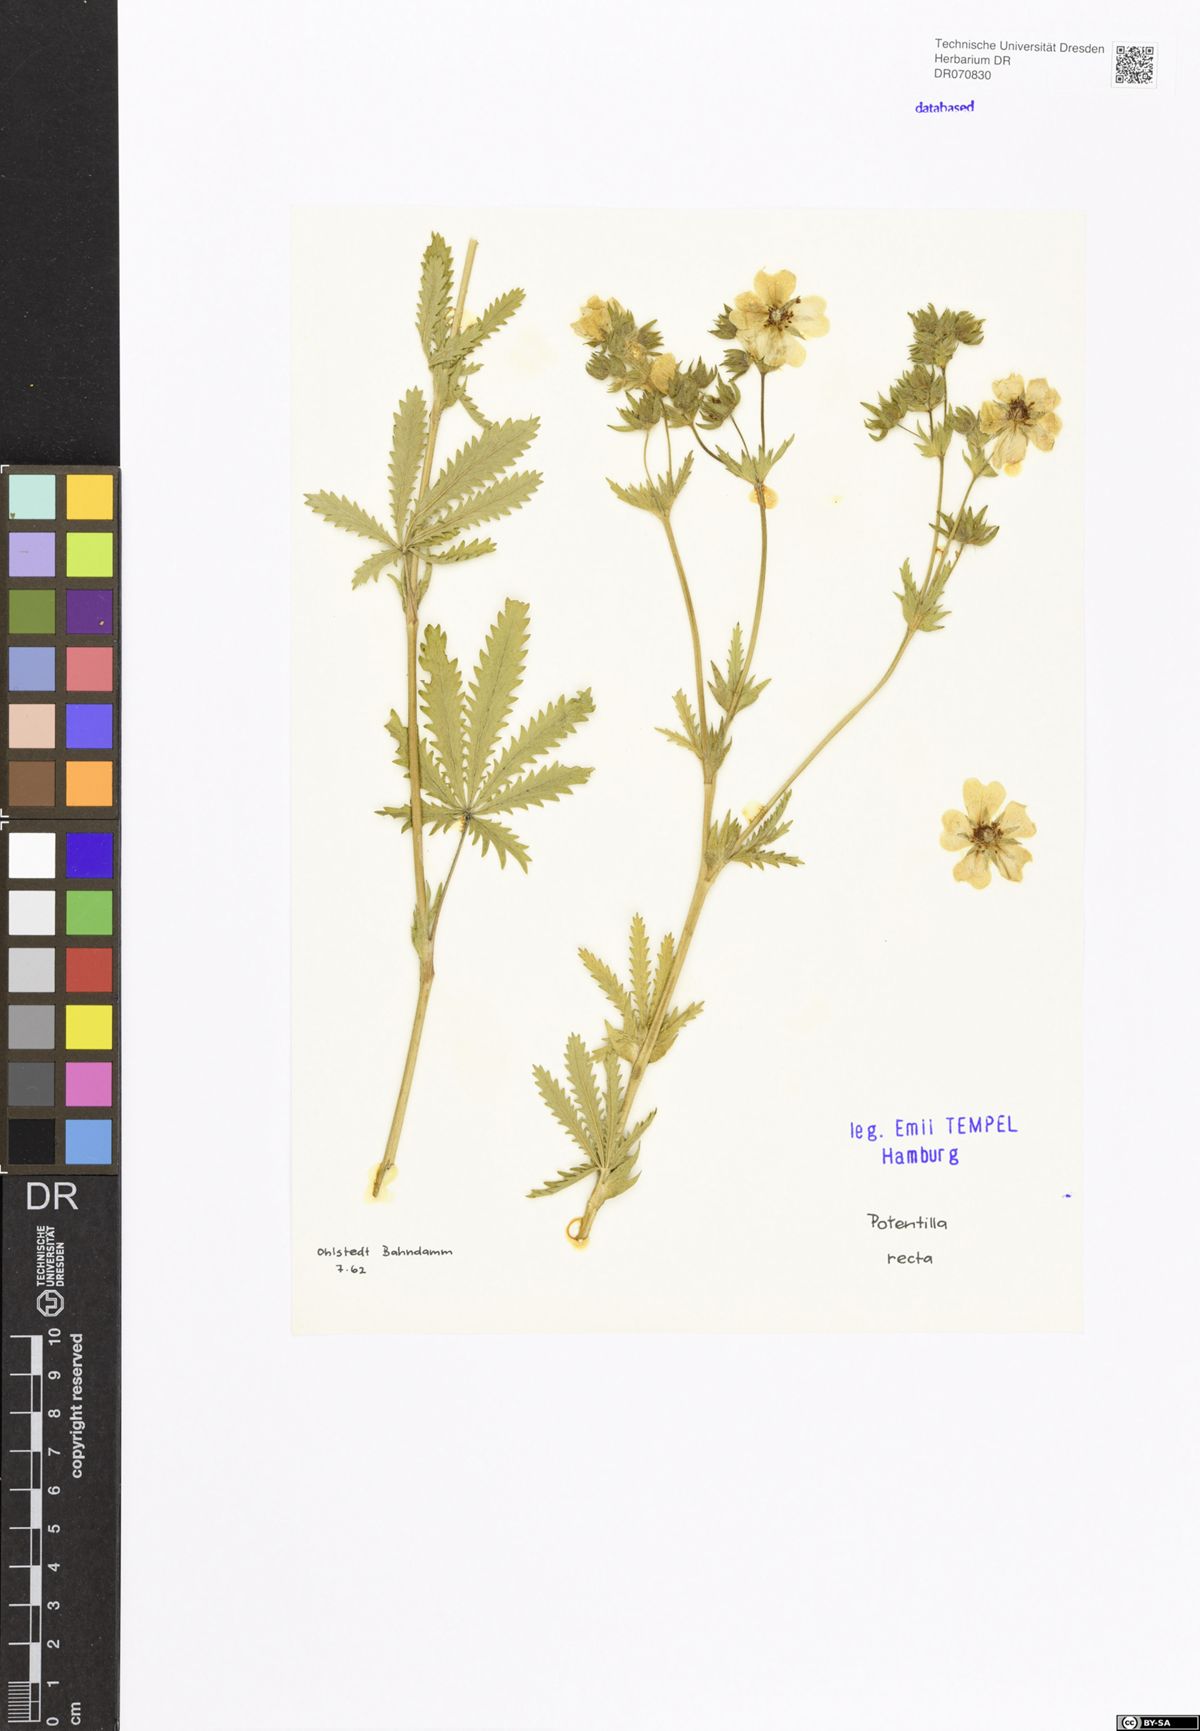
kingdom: Plantae
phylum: Tracheophyta
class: Magnoliopsida
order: Rosales
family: Rosaceae
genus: Potentilla
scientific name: Potentilla recta
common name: Sulphur cinquefoil
